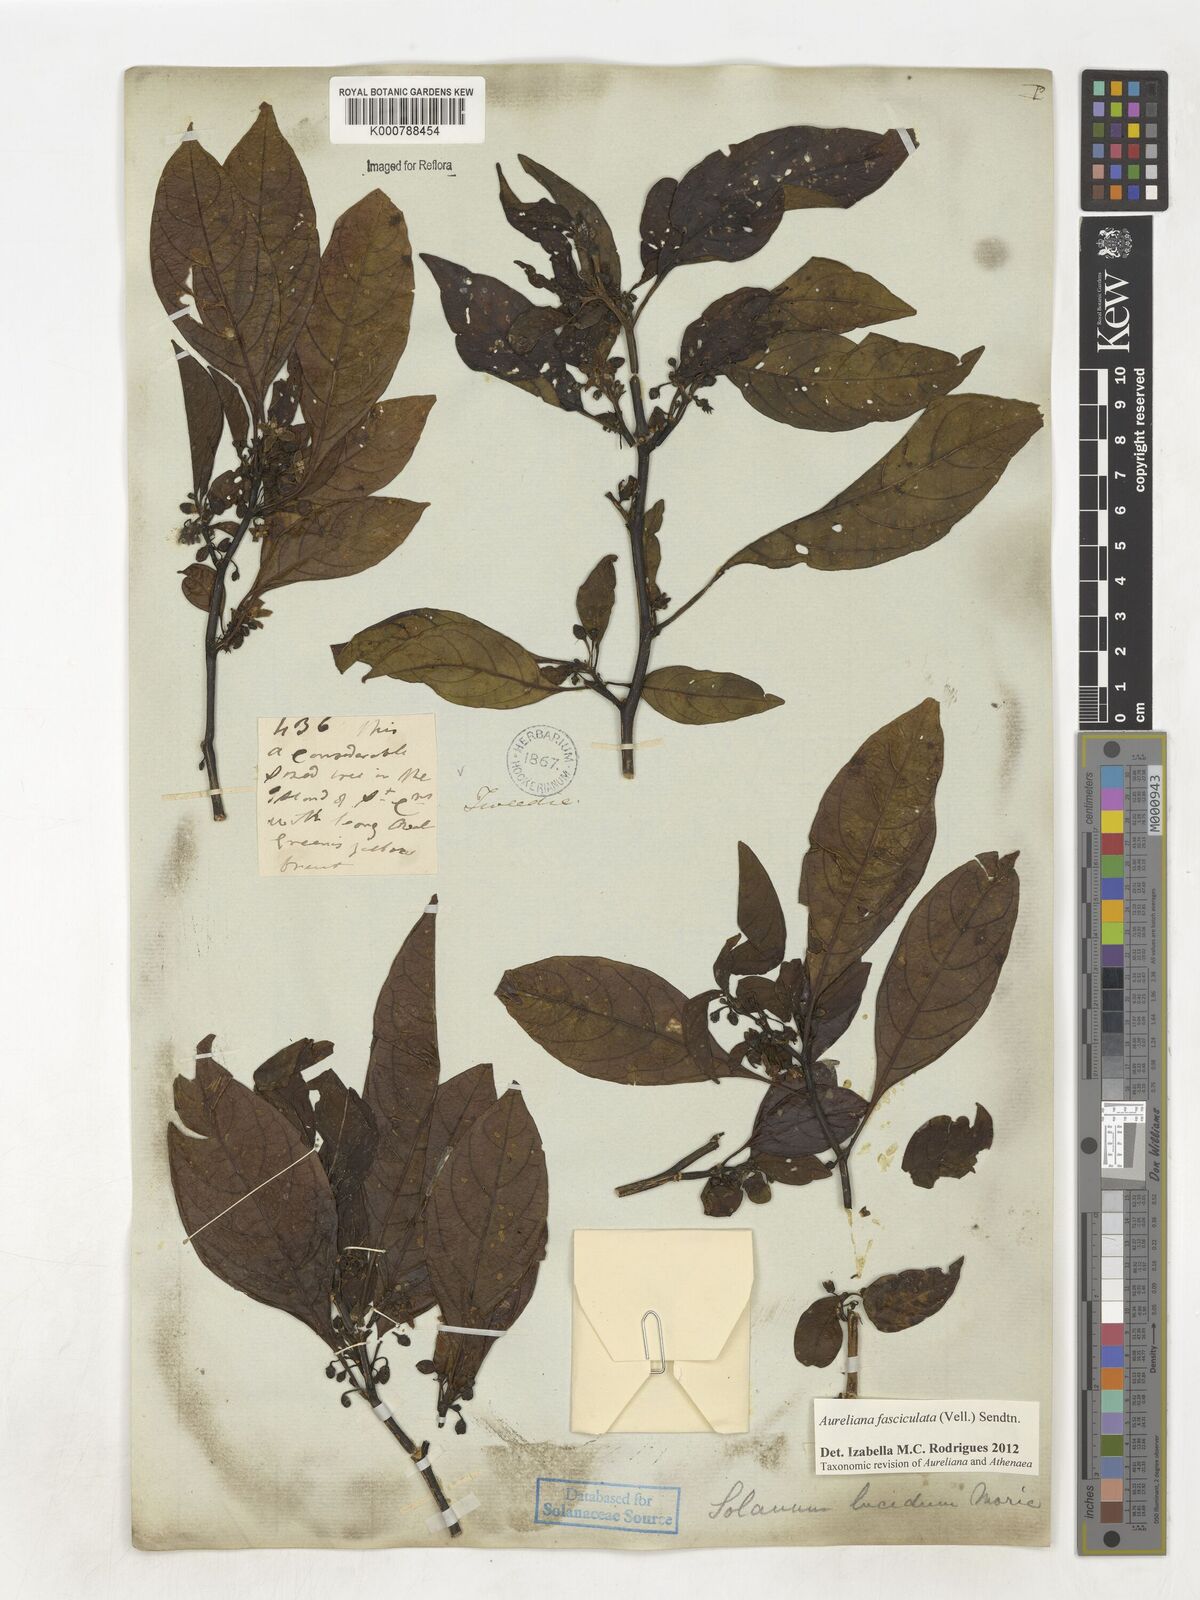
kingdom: Plantae
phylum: Tracheophyta
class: Magnoliopsida
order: Solanales
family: Solanaceae
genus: Athenaea
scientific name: Athenaea fasciculata
